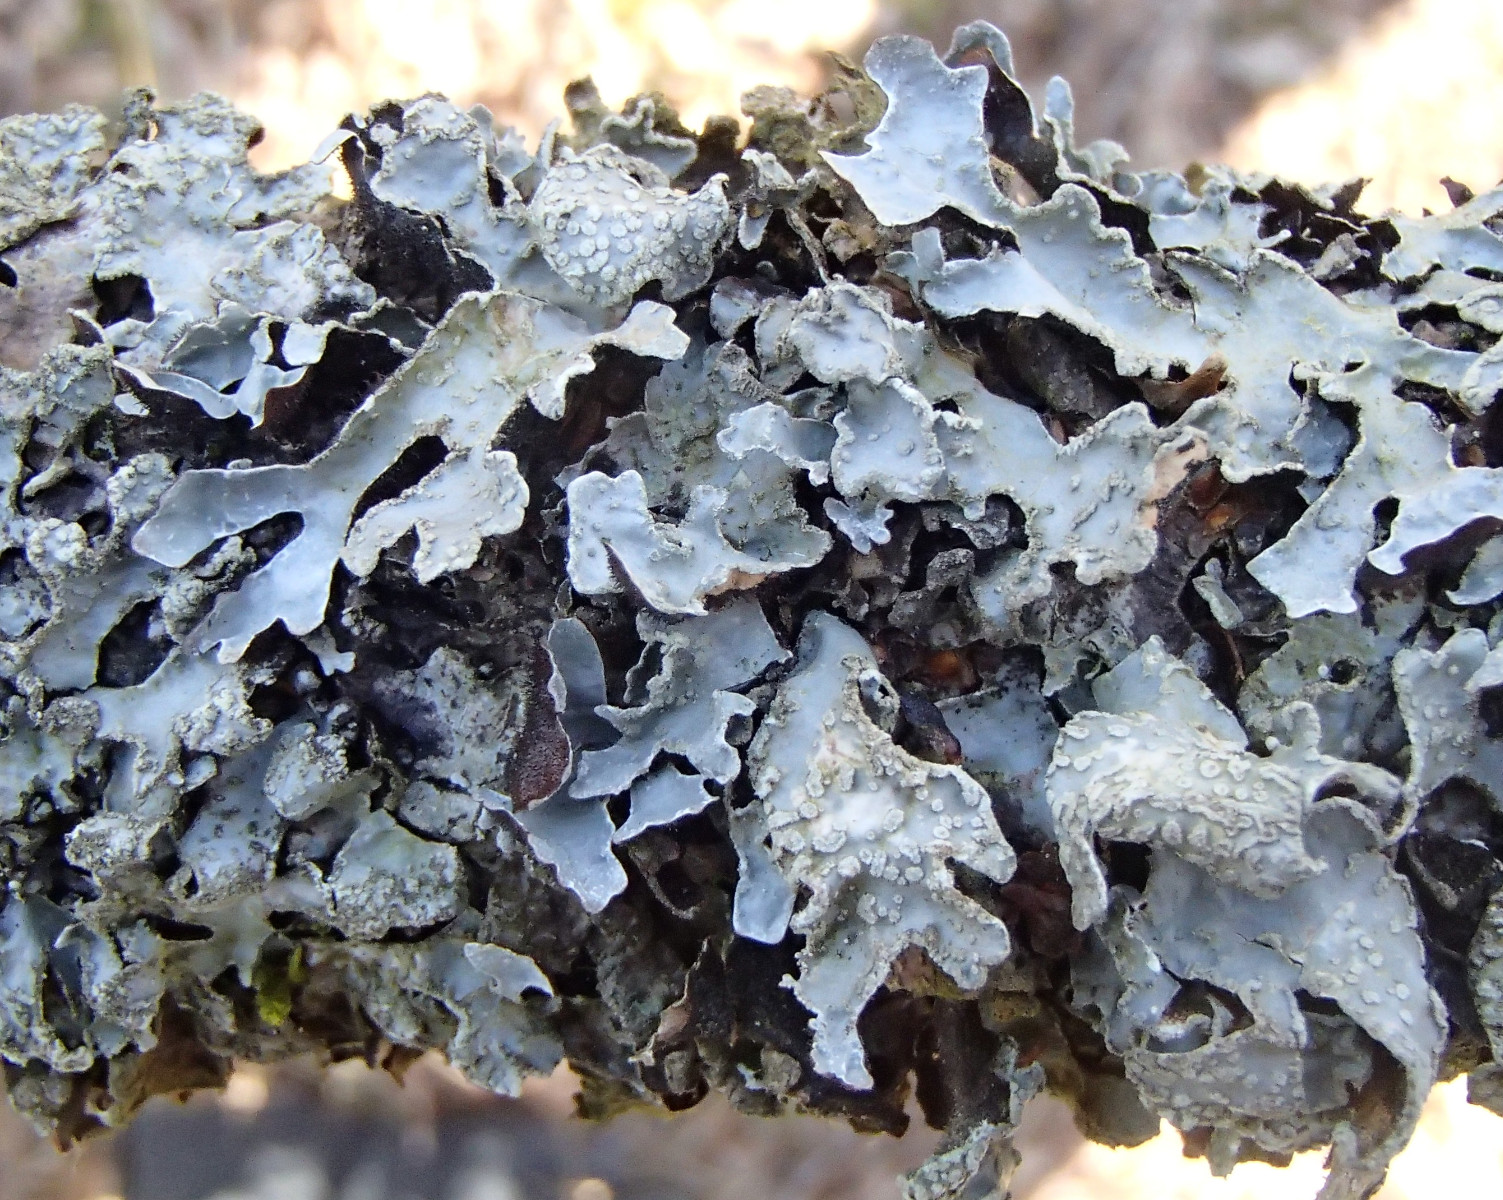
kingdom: Fungi
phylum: Ascomycota
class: Lecanoromycetes
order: Lecanorales
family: Parmeliaceae
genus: Parmelia
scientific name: Parmelia sulcata
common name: rynket skållav
